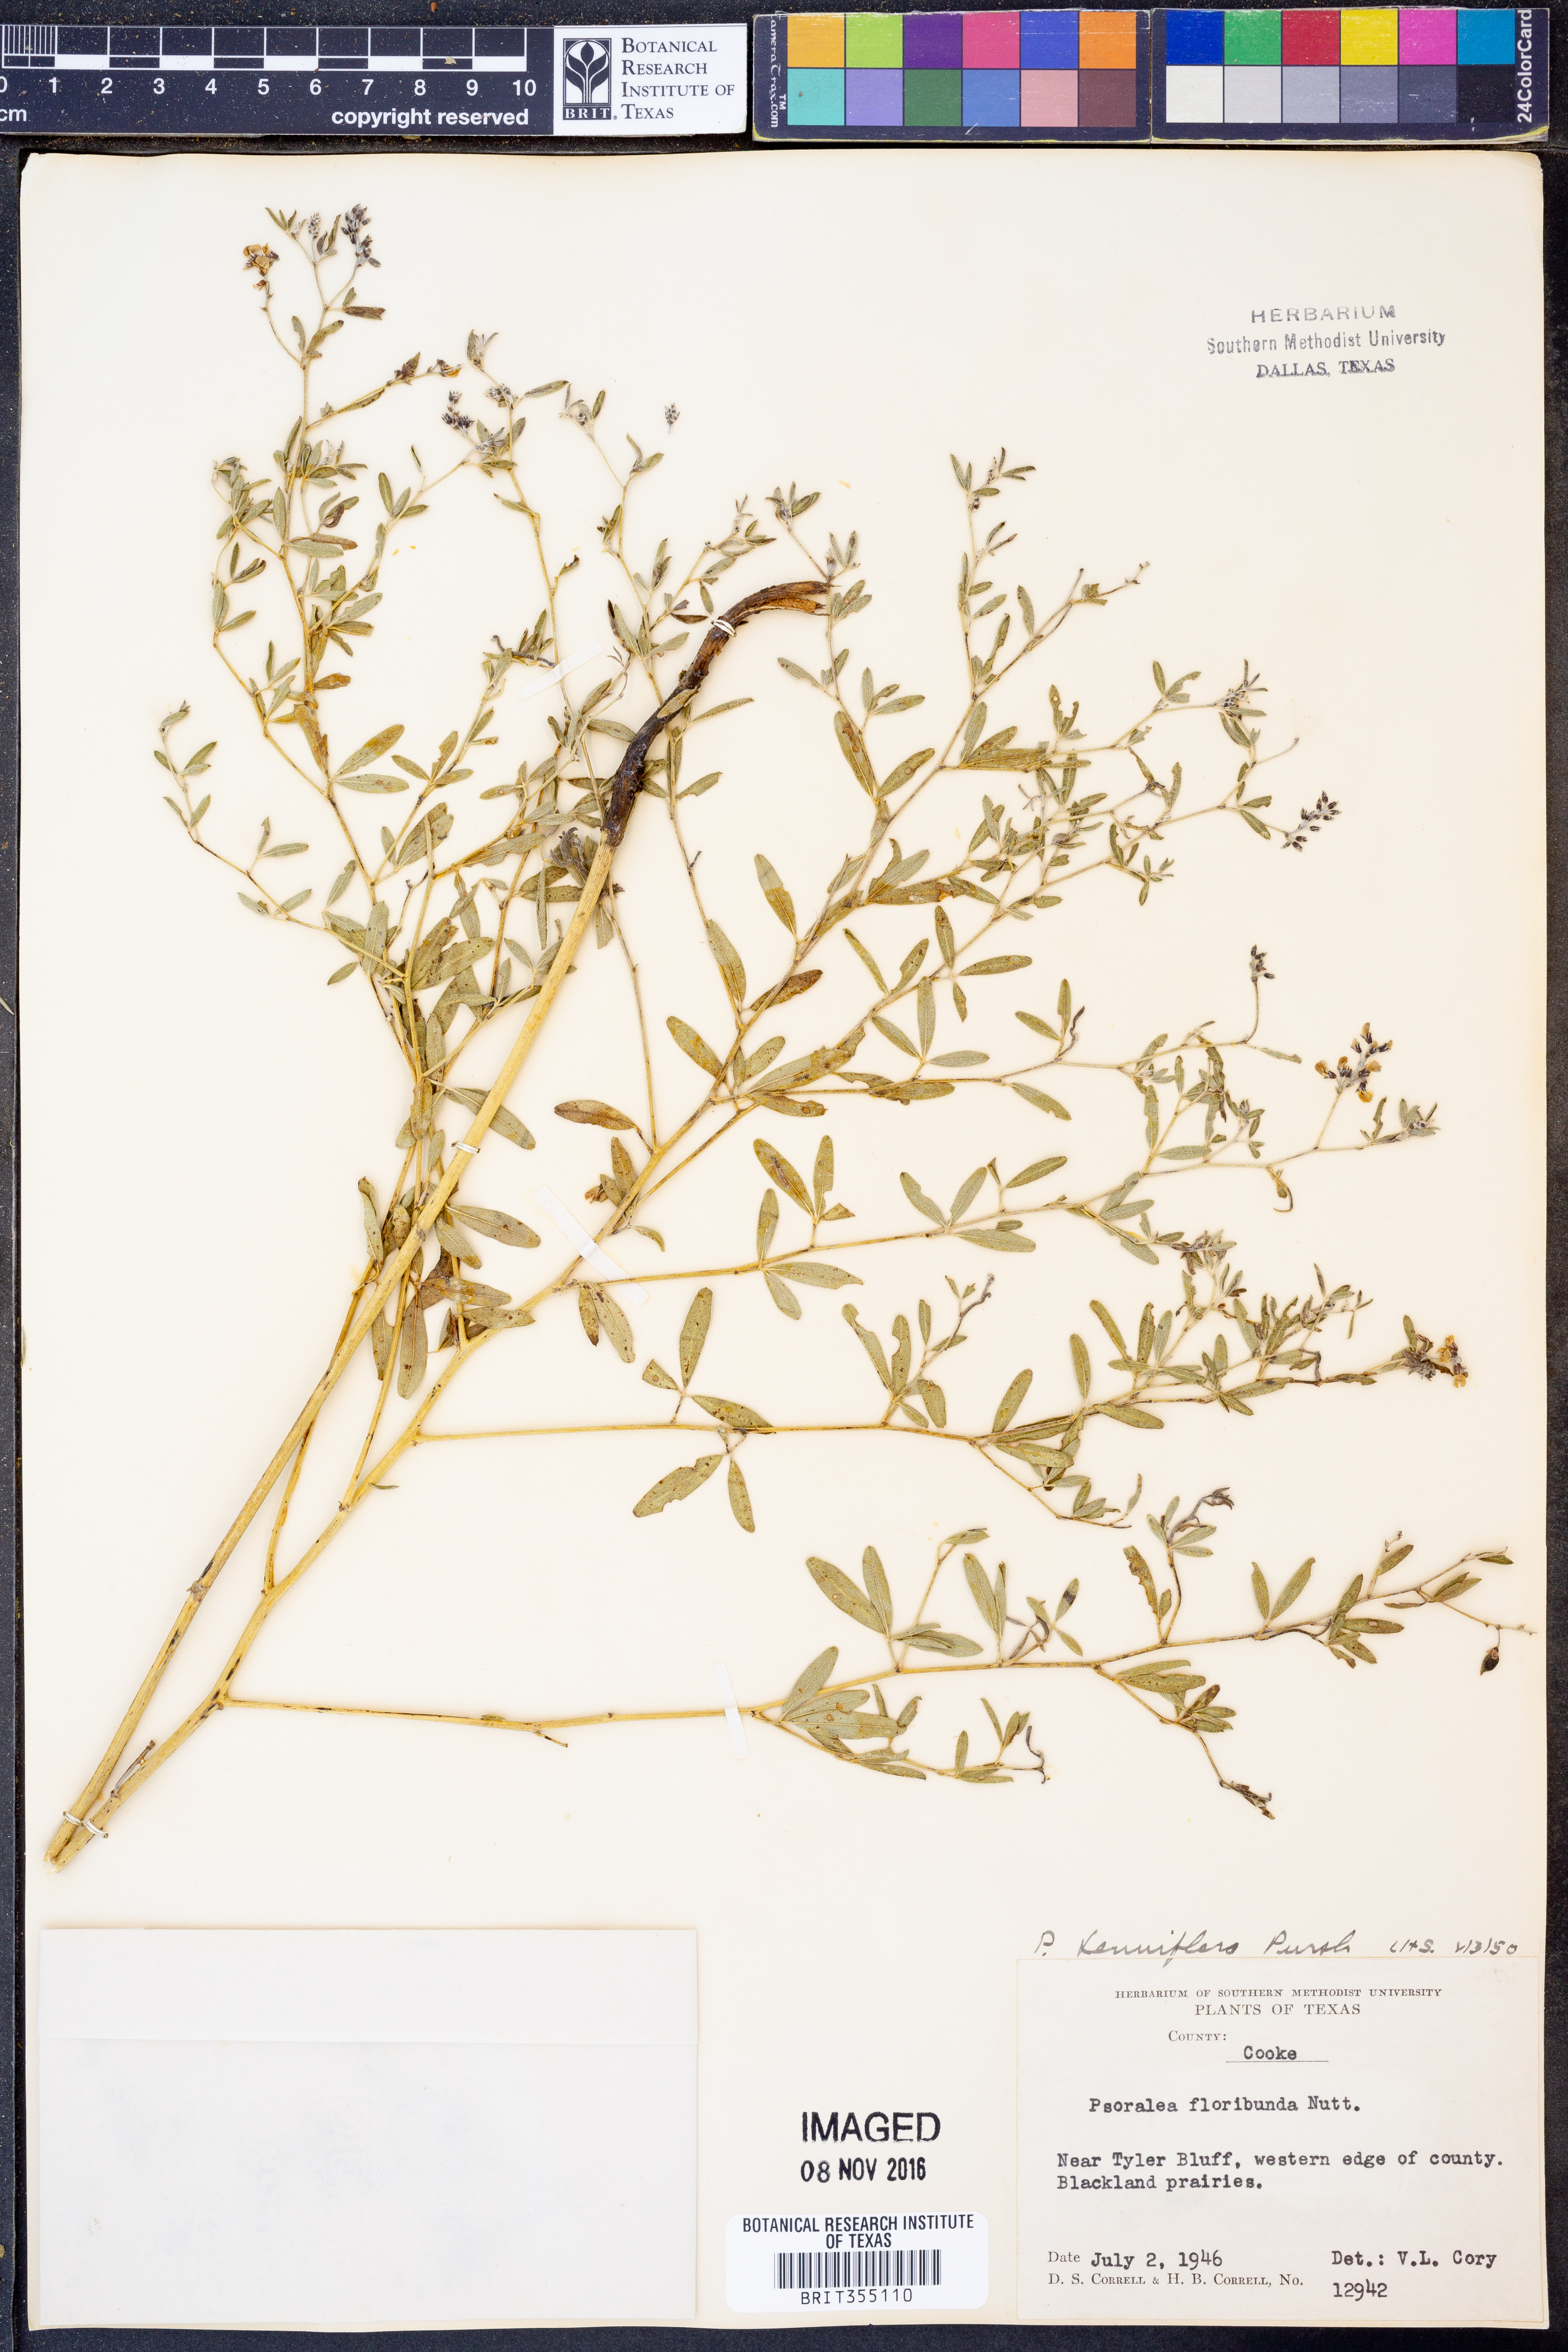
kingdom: Plantae
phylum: Tracheophyta
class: Magnoliopsida
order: Fabales
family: Fabaceae
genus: Pediomelum
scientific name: Pediomelum tenuiflorum
